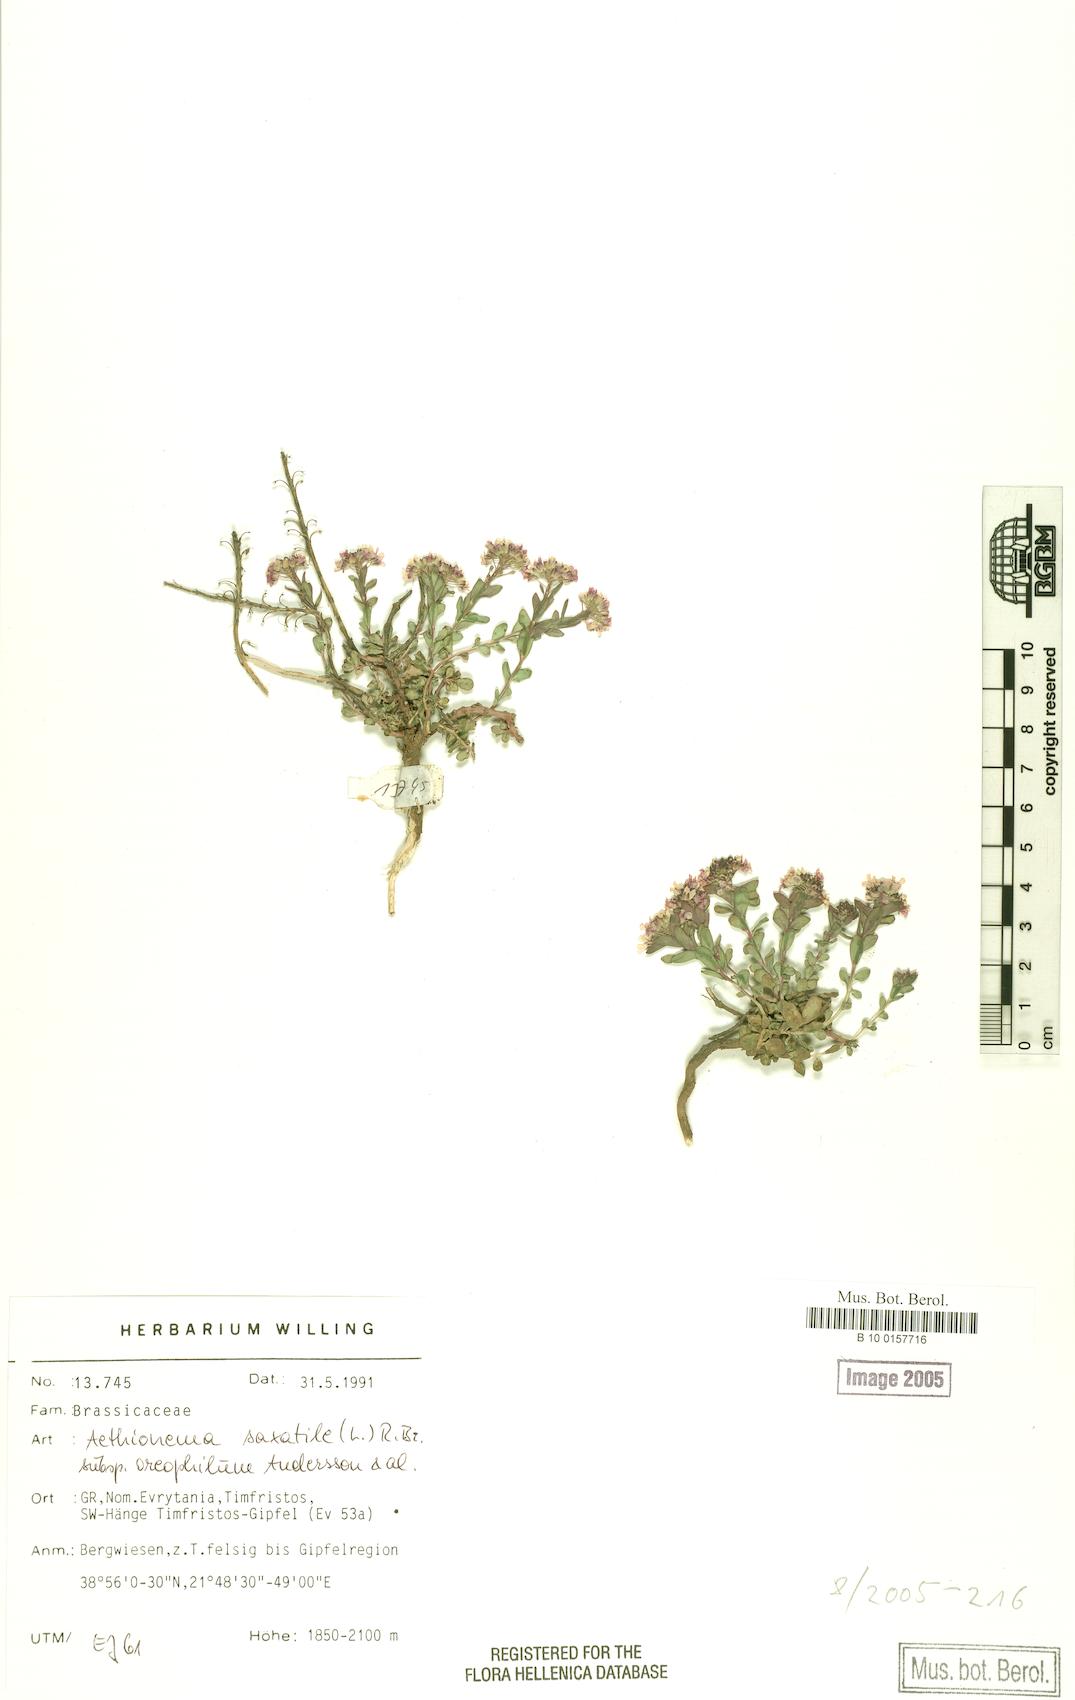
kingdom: Plantae
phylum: Tracheophyta
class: Magnoliopsida
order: Brassicales
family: Brassicaceae
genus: Aethionema
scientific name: Aethionema saxatile
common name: Burnt candytuft
